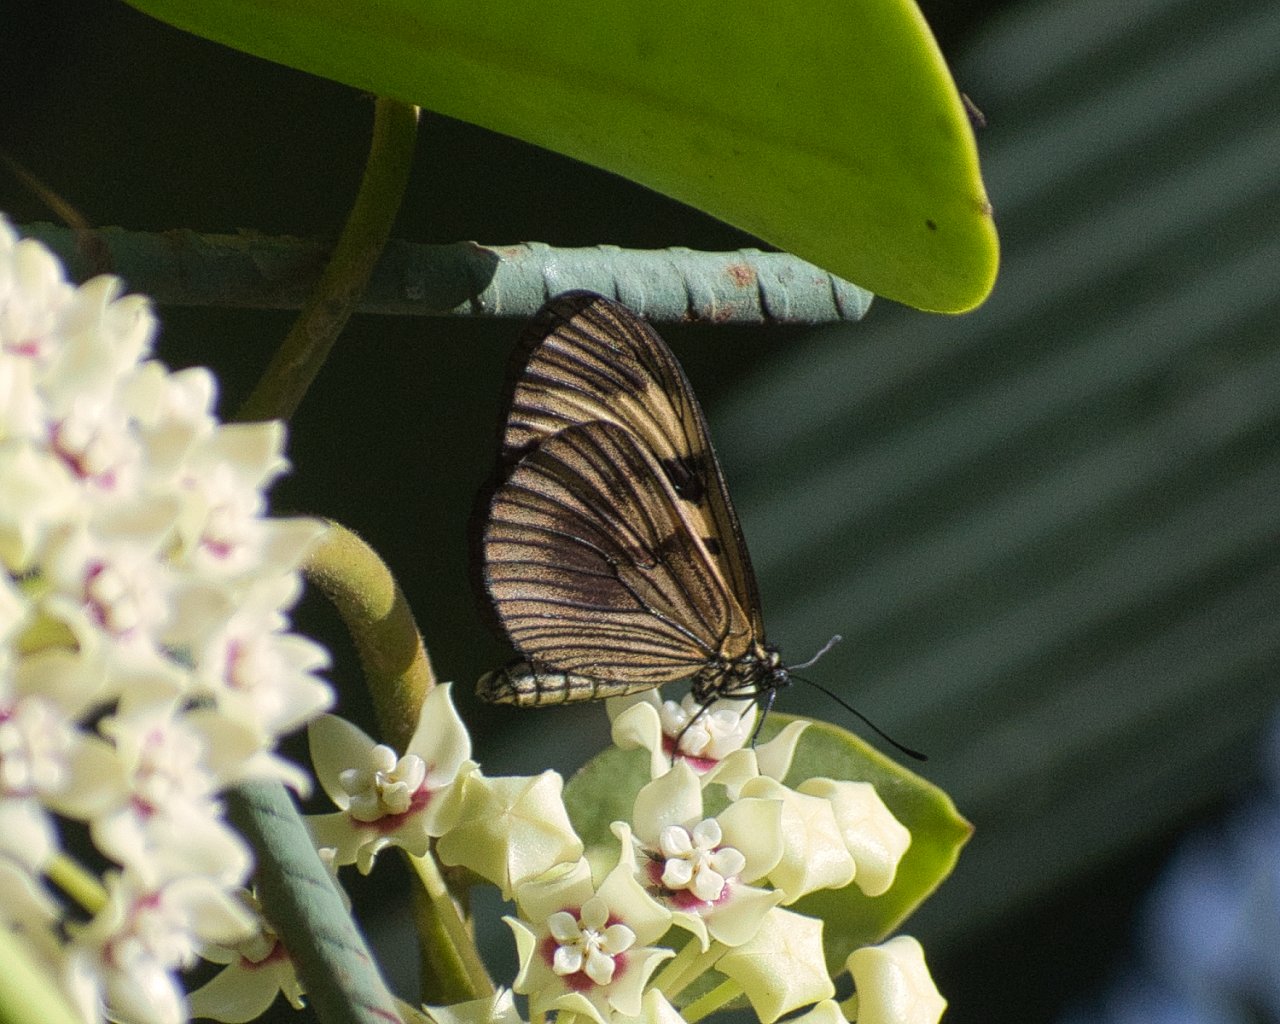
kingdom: Animalia
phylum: Arthropoda
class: Insecta
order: Lepidoptera
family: Nymphalidae
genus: Actinote
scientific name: Actinote anteas
